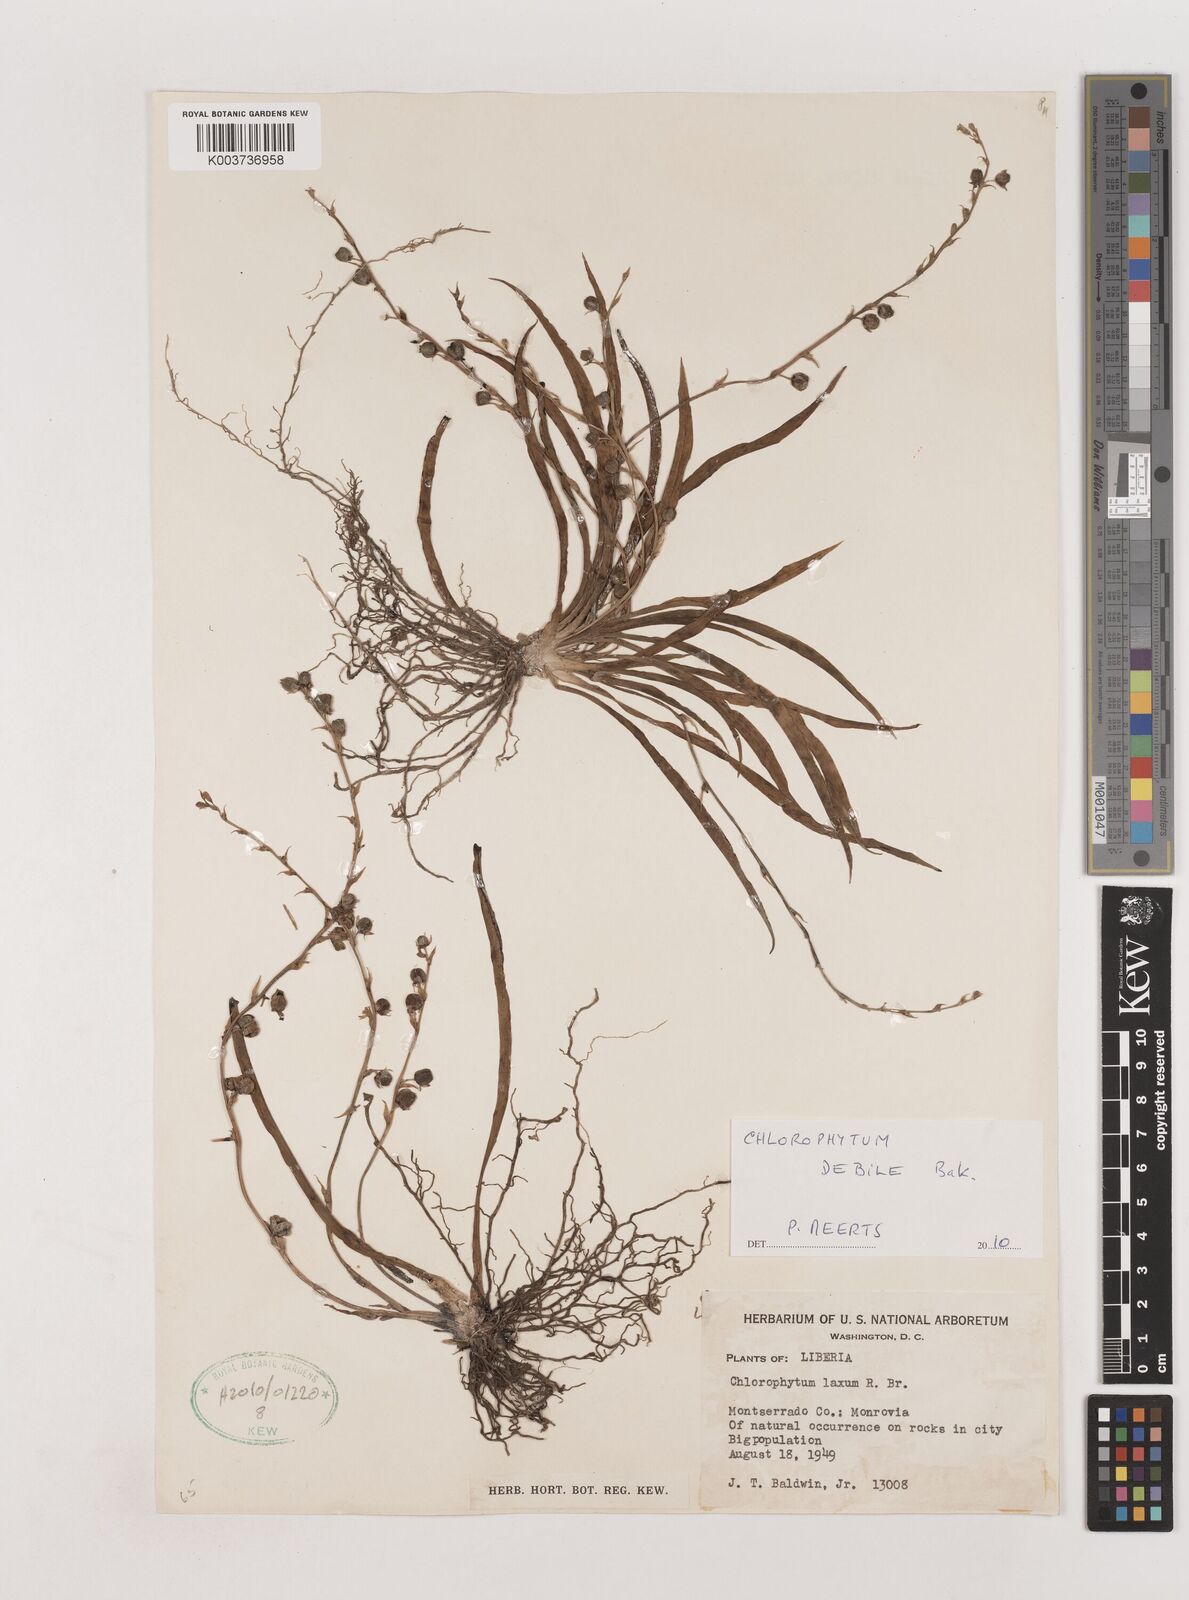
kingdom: Plantae
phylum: Tracheophyta
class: Liliopsida
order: Asparagales
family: Asparagaceae
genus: Chlorophytum
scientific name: Chlorophytum laxum
